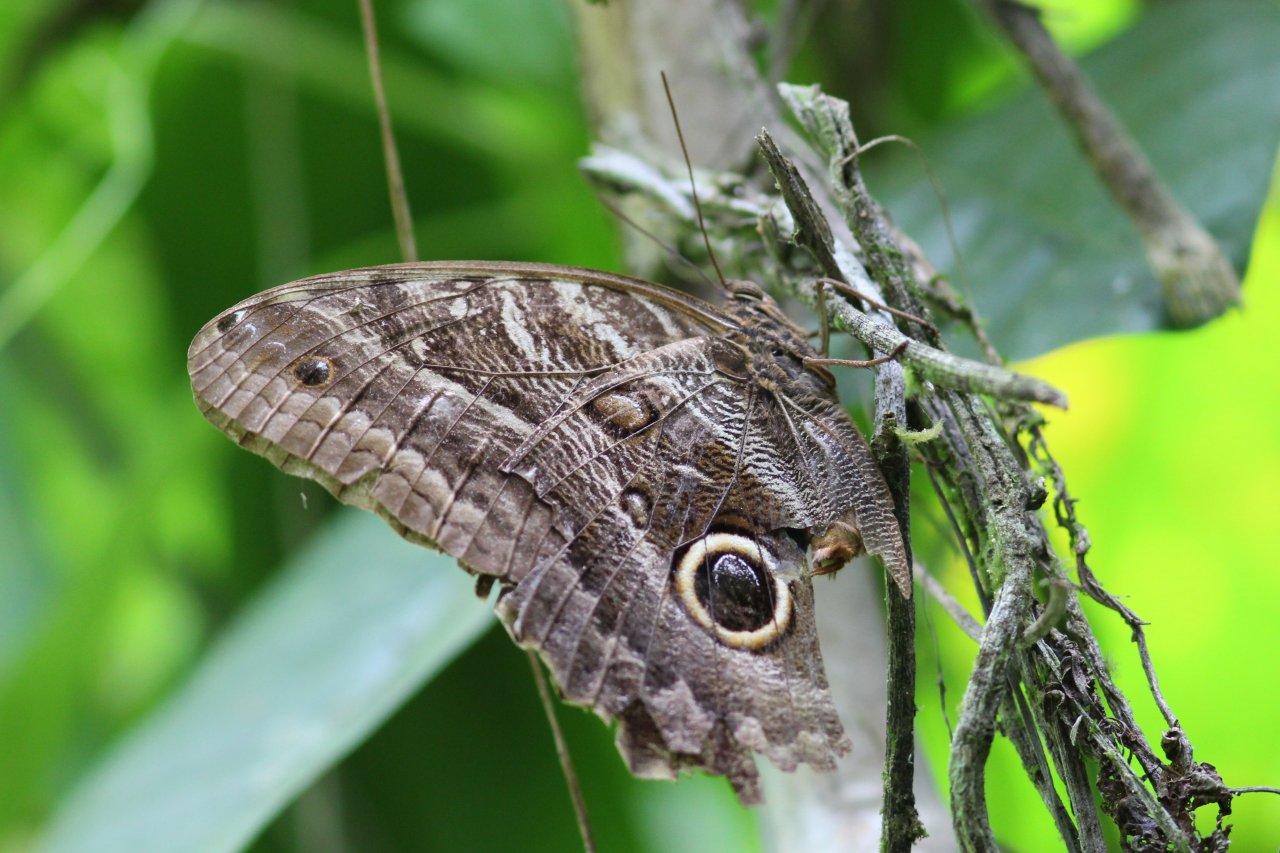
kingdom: Animalia
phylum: Arthropoda
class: Insecta
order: Lepidoptera
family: Nymphalidae
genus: Caligo
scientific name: Caligo brasiliensis
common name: Dark Owl-Butterfly
